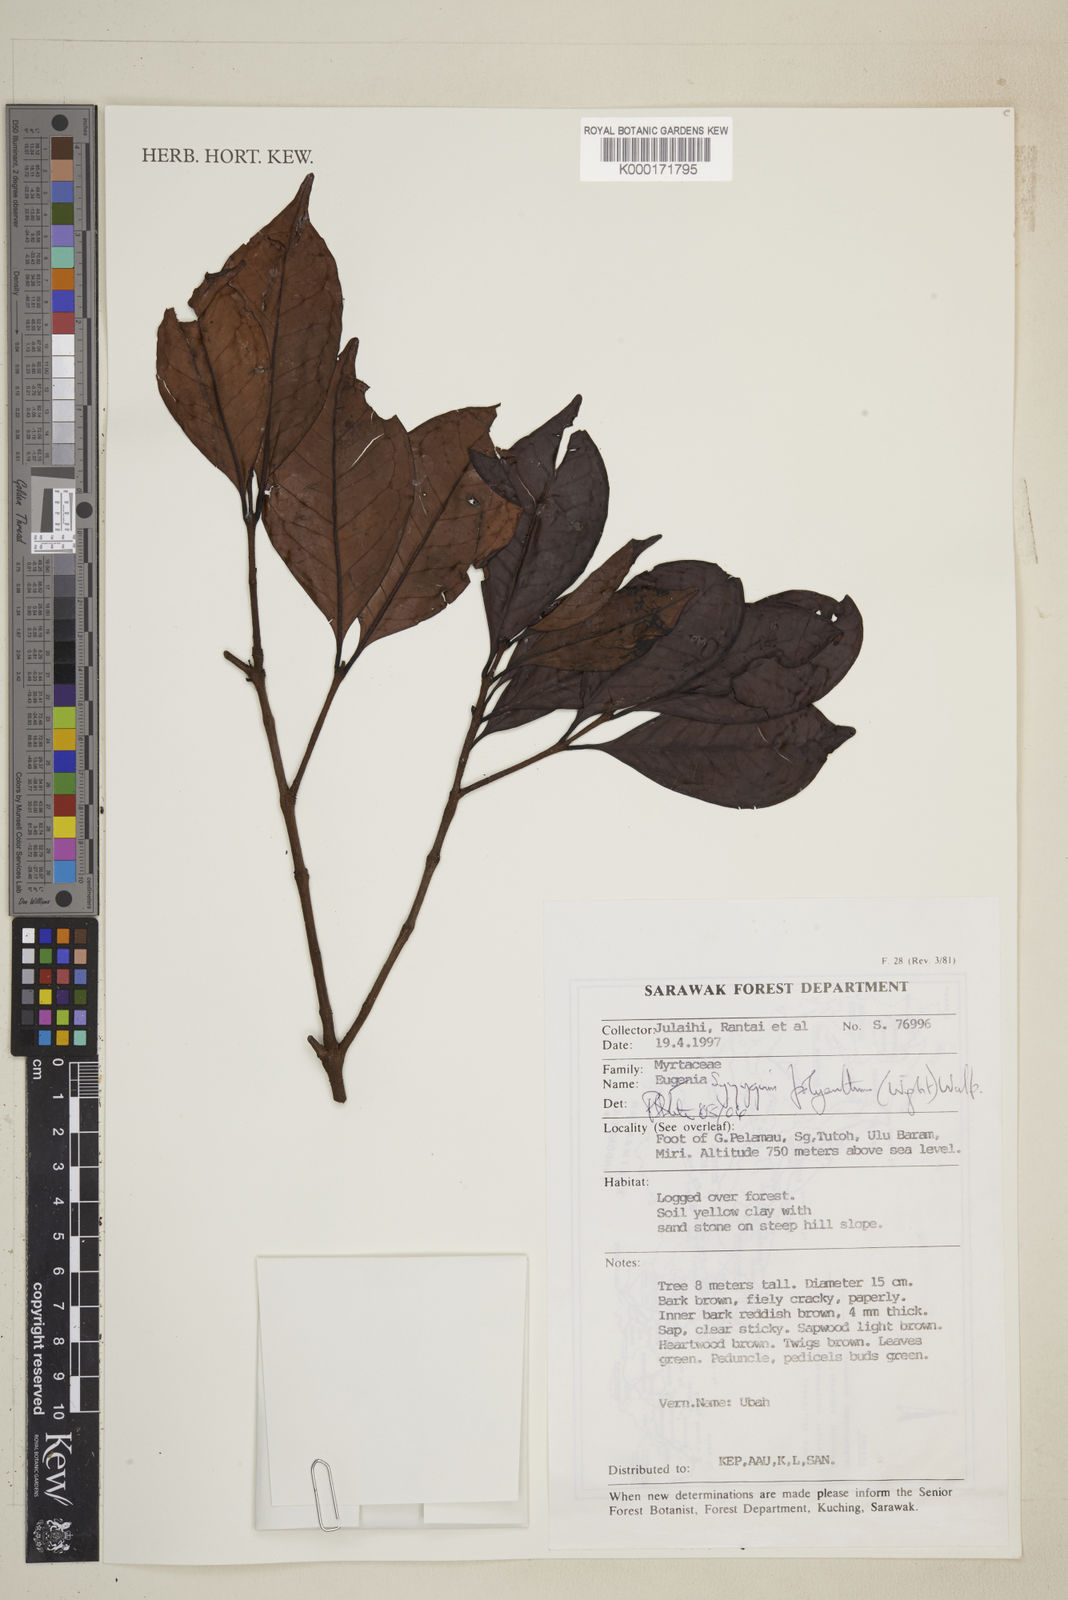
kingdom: Plantae
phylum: Tracheophyta
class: Magnoliopsida
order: Myrtales
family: Myrtaceae
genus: Syzygium
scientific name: Syzygium polyanthum
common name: Indonesian bayleaf
